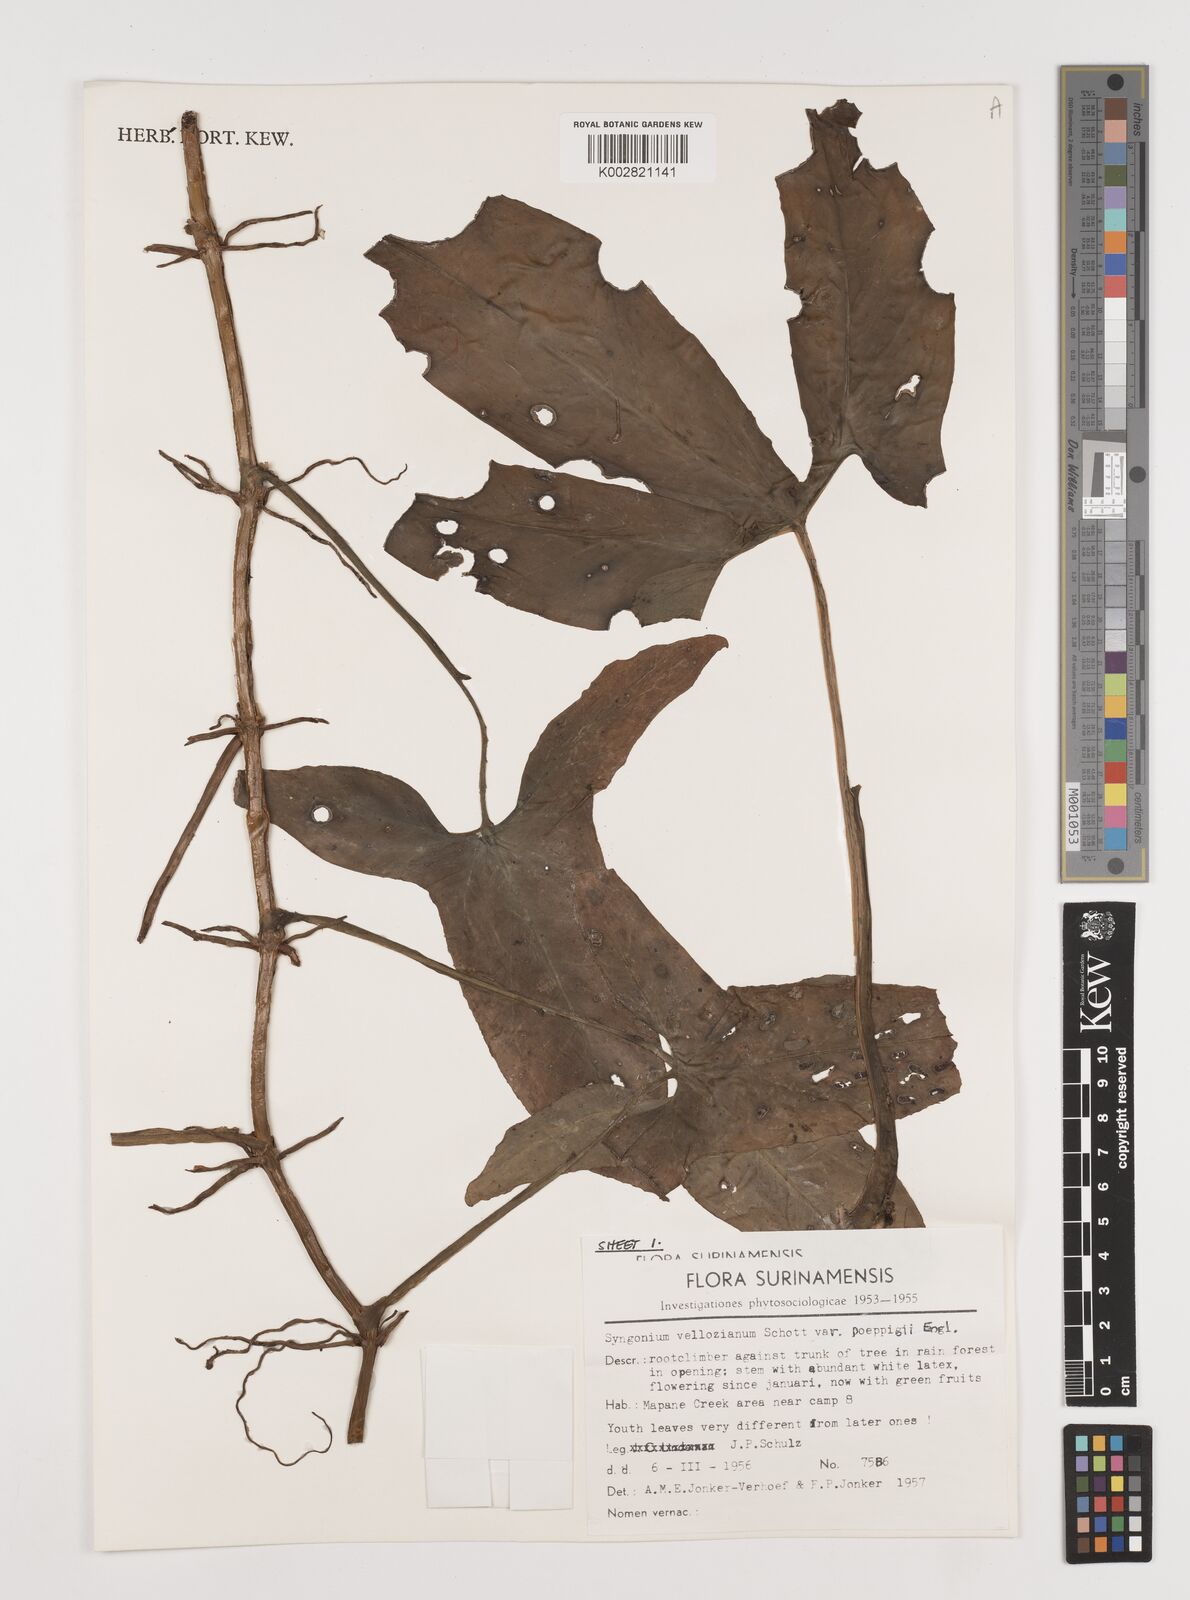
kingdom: Plantae
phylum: Tracheophyta
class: Liliopsida
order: Alismatales
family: Araceae
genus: Syngonium
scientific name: Syngonium podophyllum
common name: American evergreen
